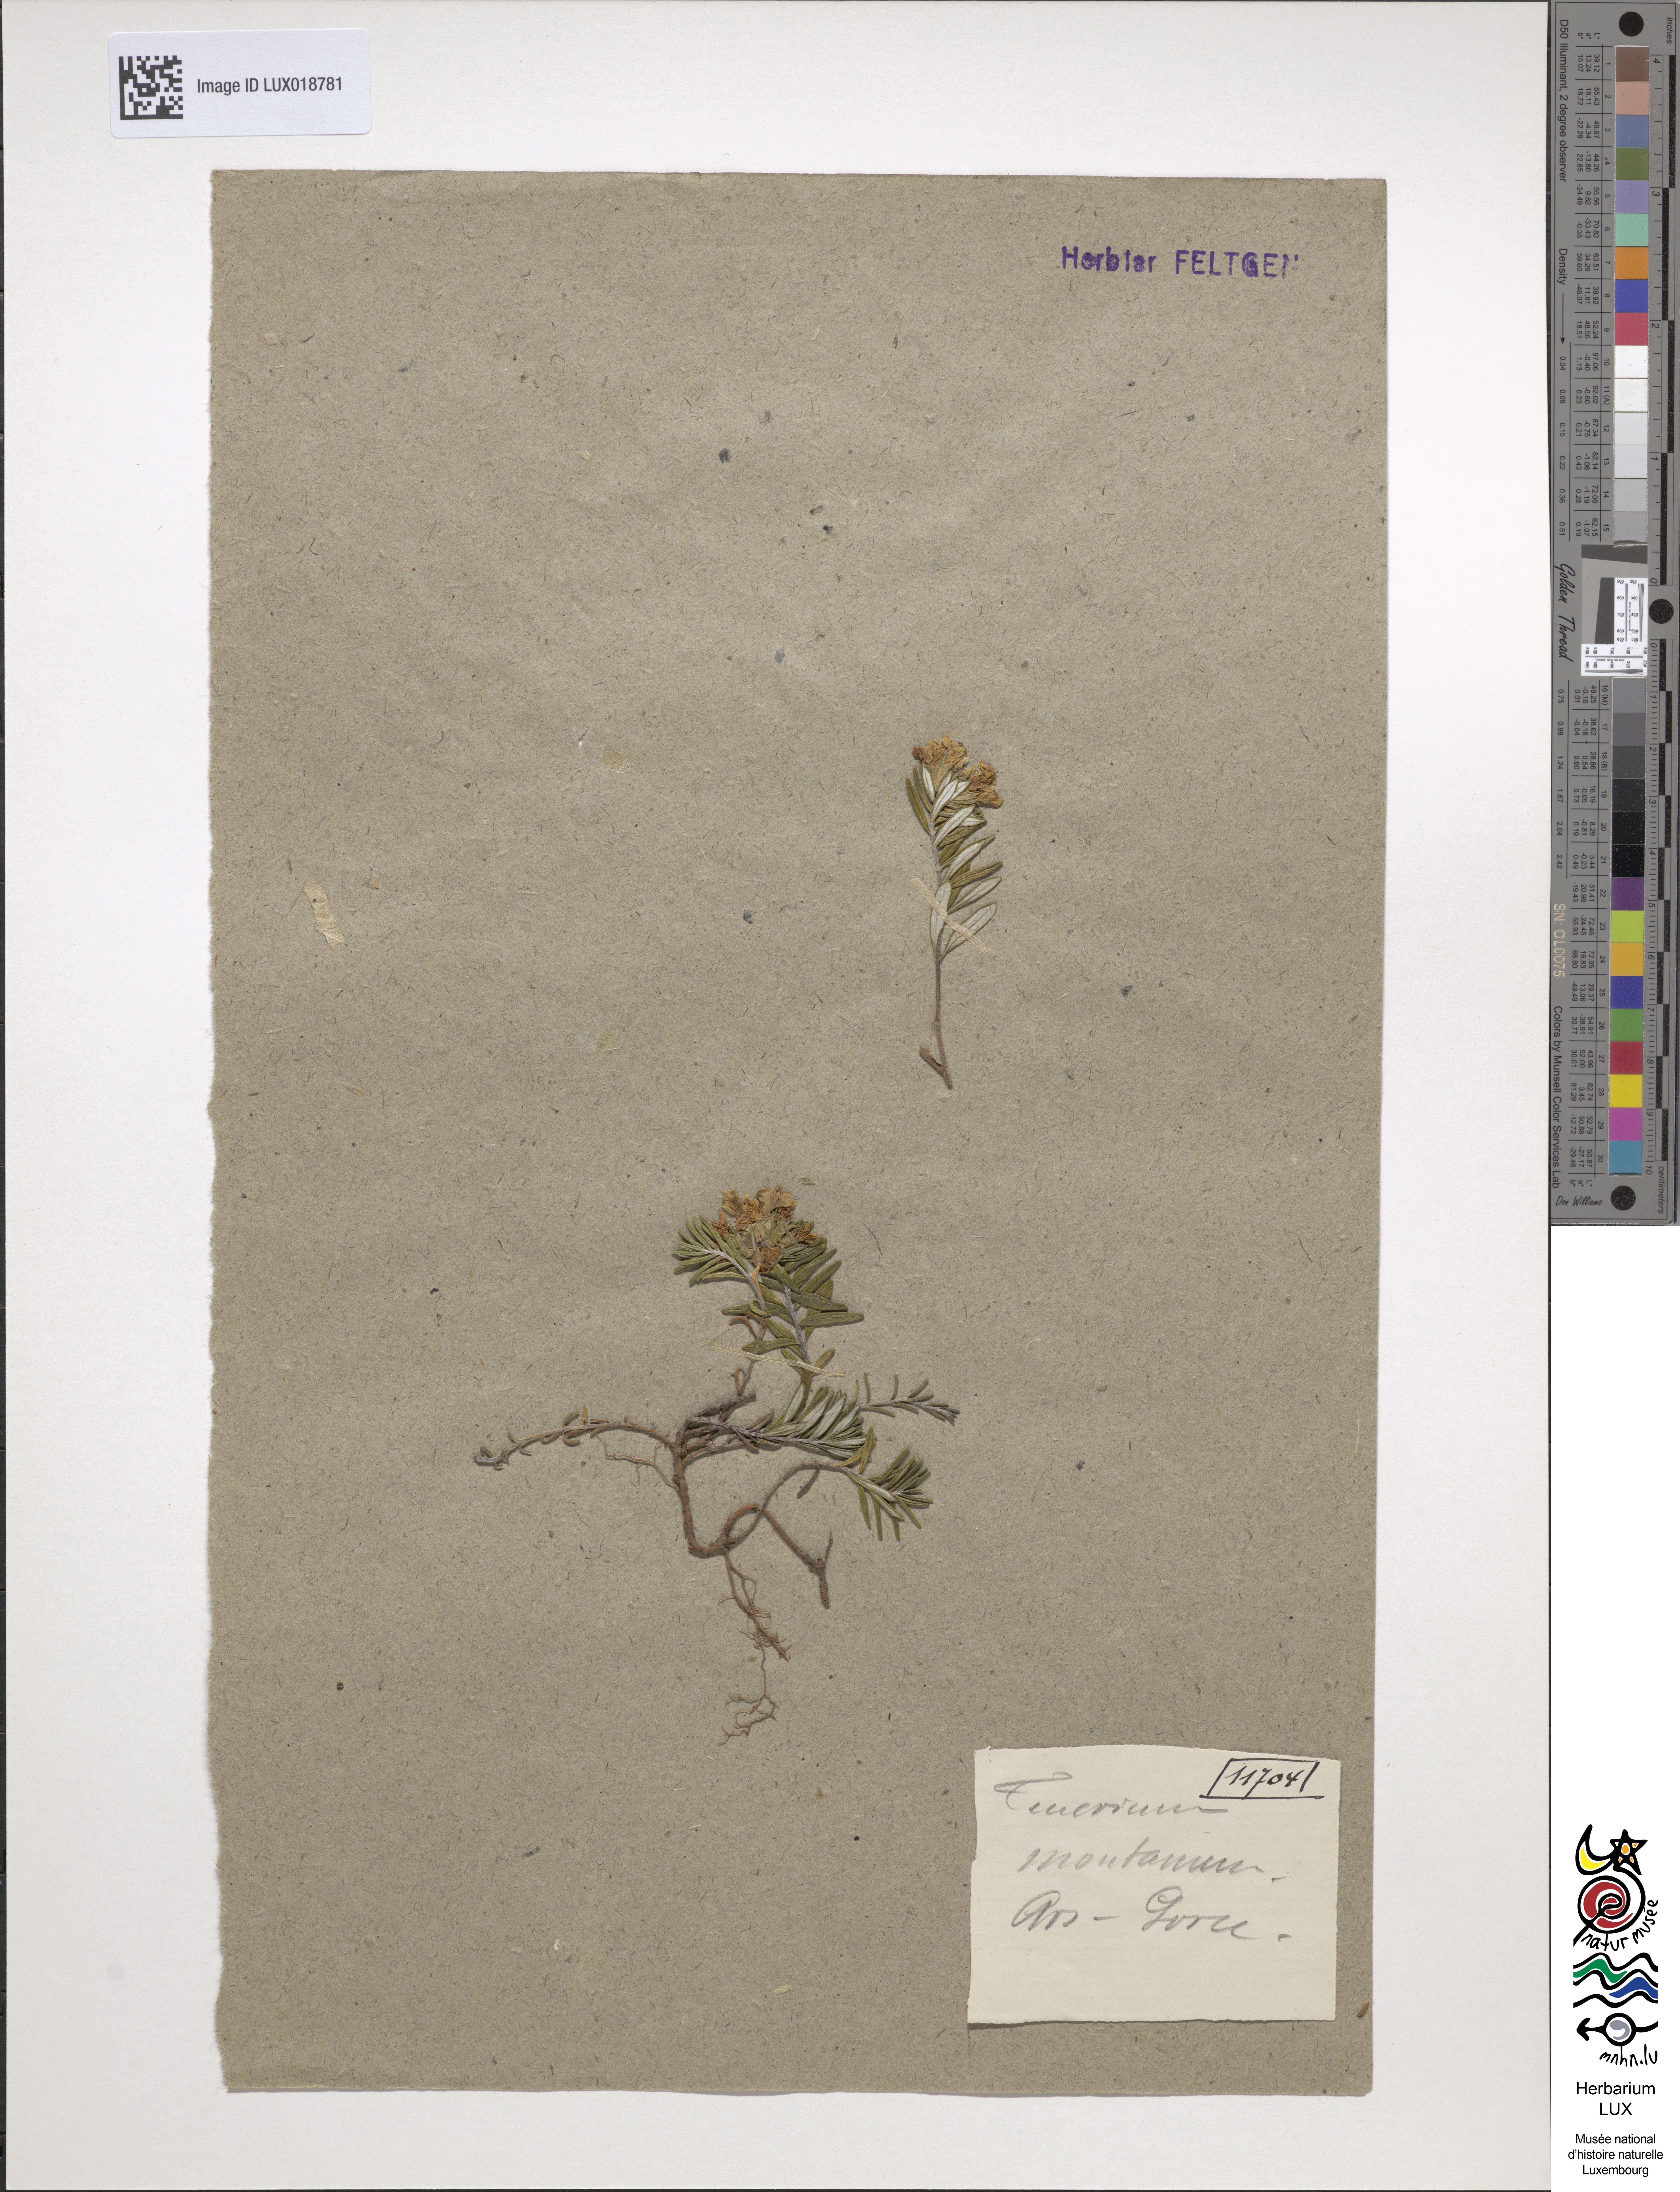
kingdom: Plantae
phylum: Tracheophyta
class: Magnoliopsida
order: Lamiales
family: Lamiaceae
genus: Teucrium
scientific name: Teucrium montanum
